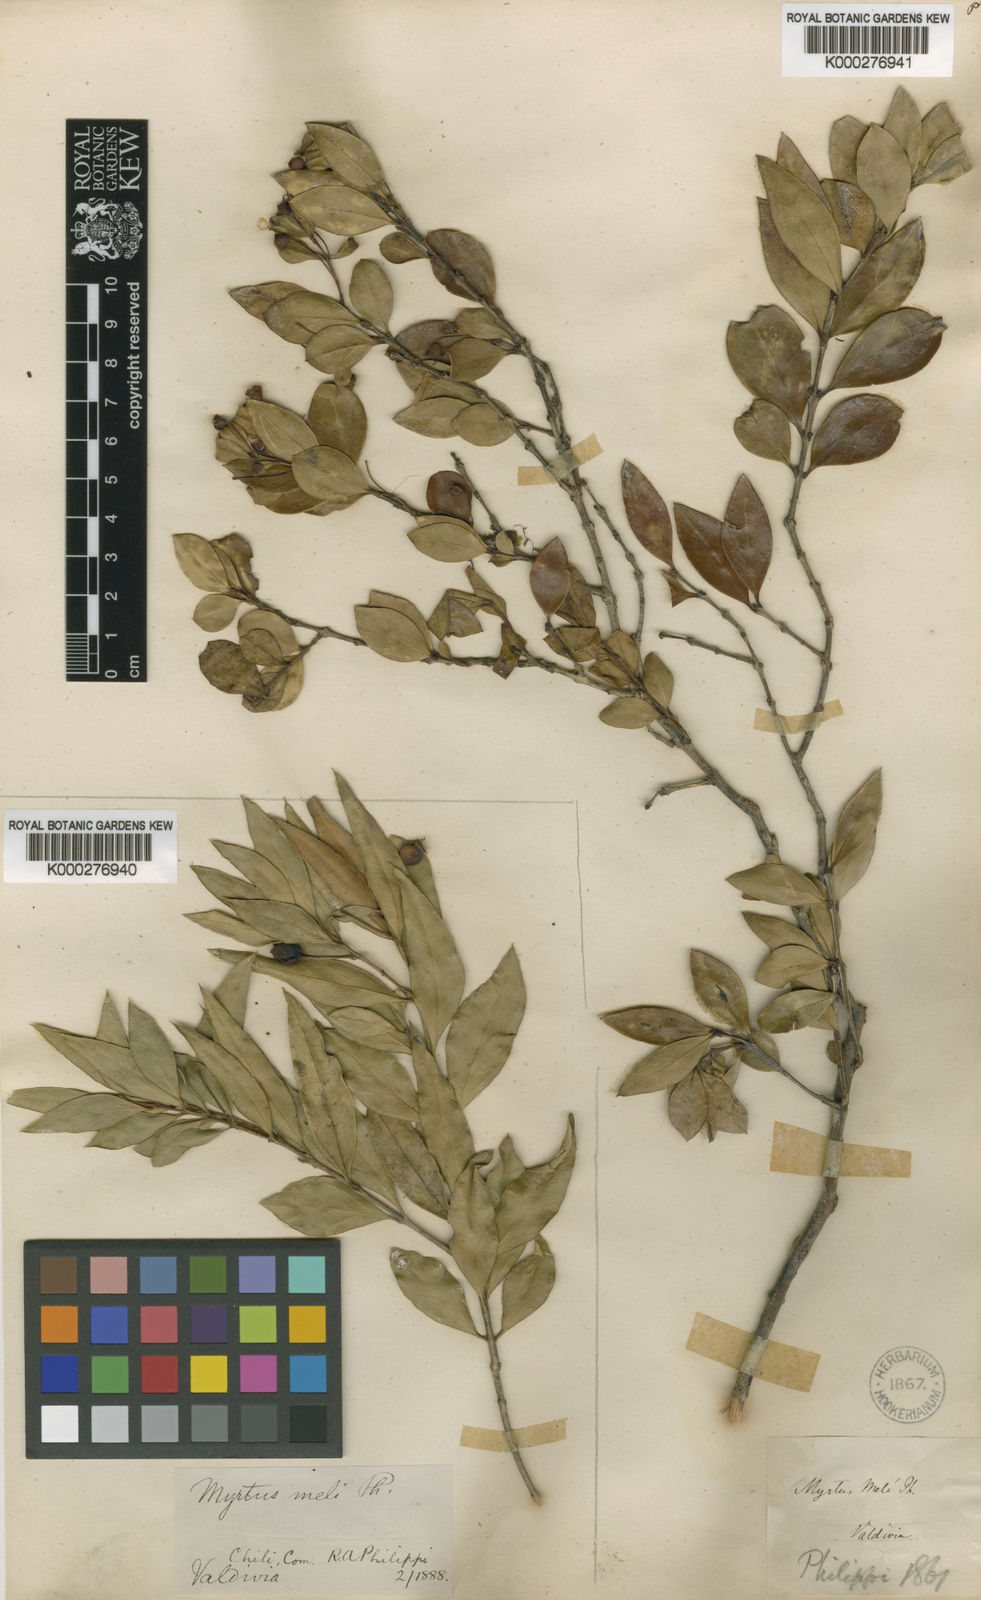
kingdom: Plantae
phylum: Tracheophyta
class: Magnoliopsida
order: Myrtales
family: Myrtaceae
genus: Amomyrtus
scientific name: Amomyrtus meli
